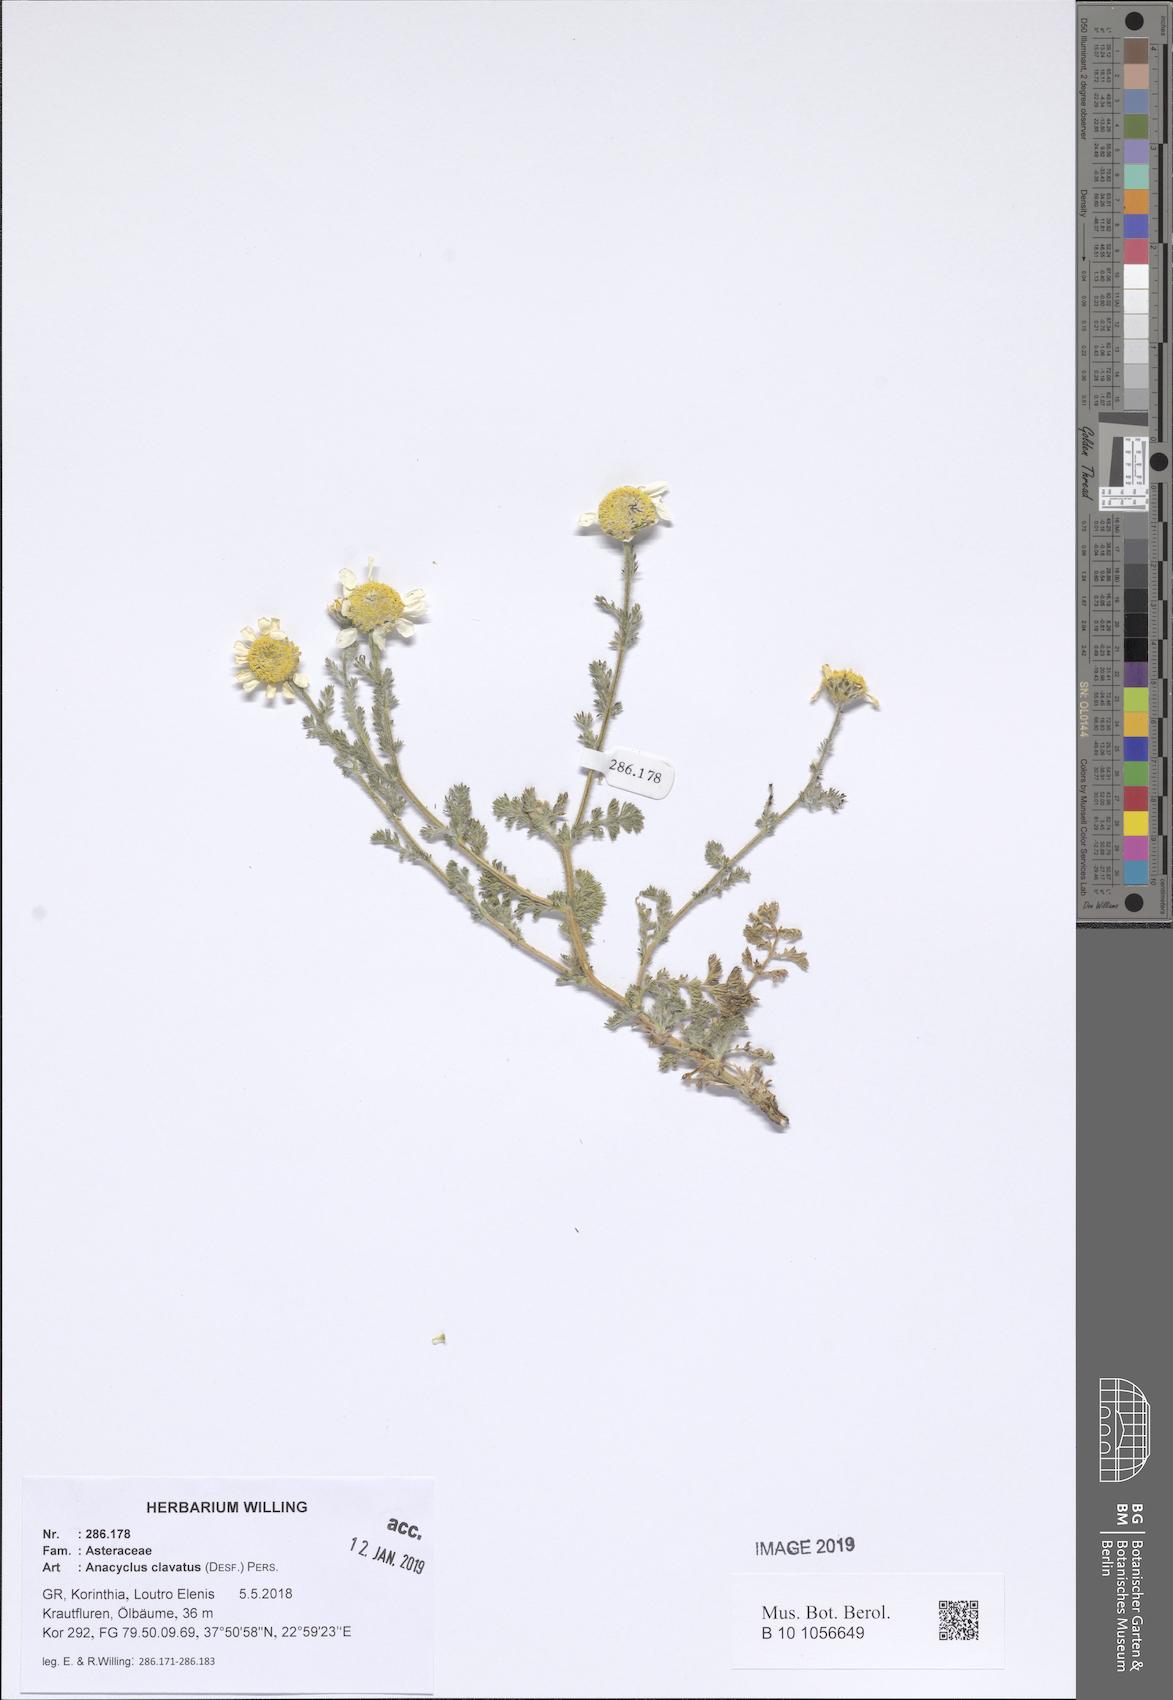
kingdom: Plantae
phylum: Tracheophyta
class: Magnoliopsida
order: Asterales
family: Asteraceae
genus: Anacyclus
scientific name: Anacyclus clavatus
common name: Whitebuttons
